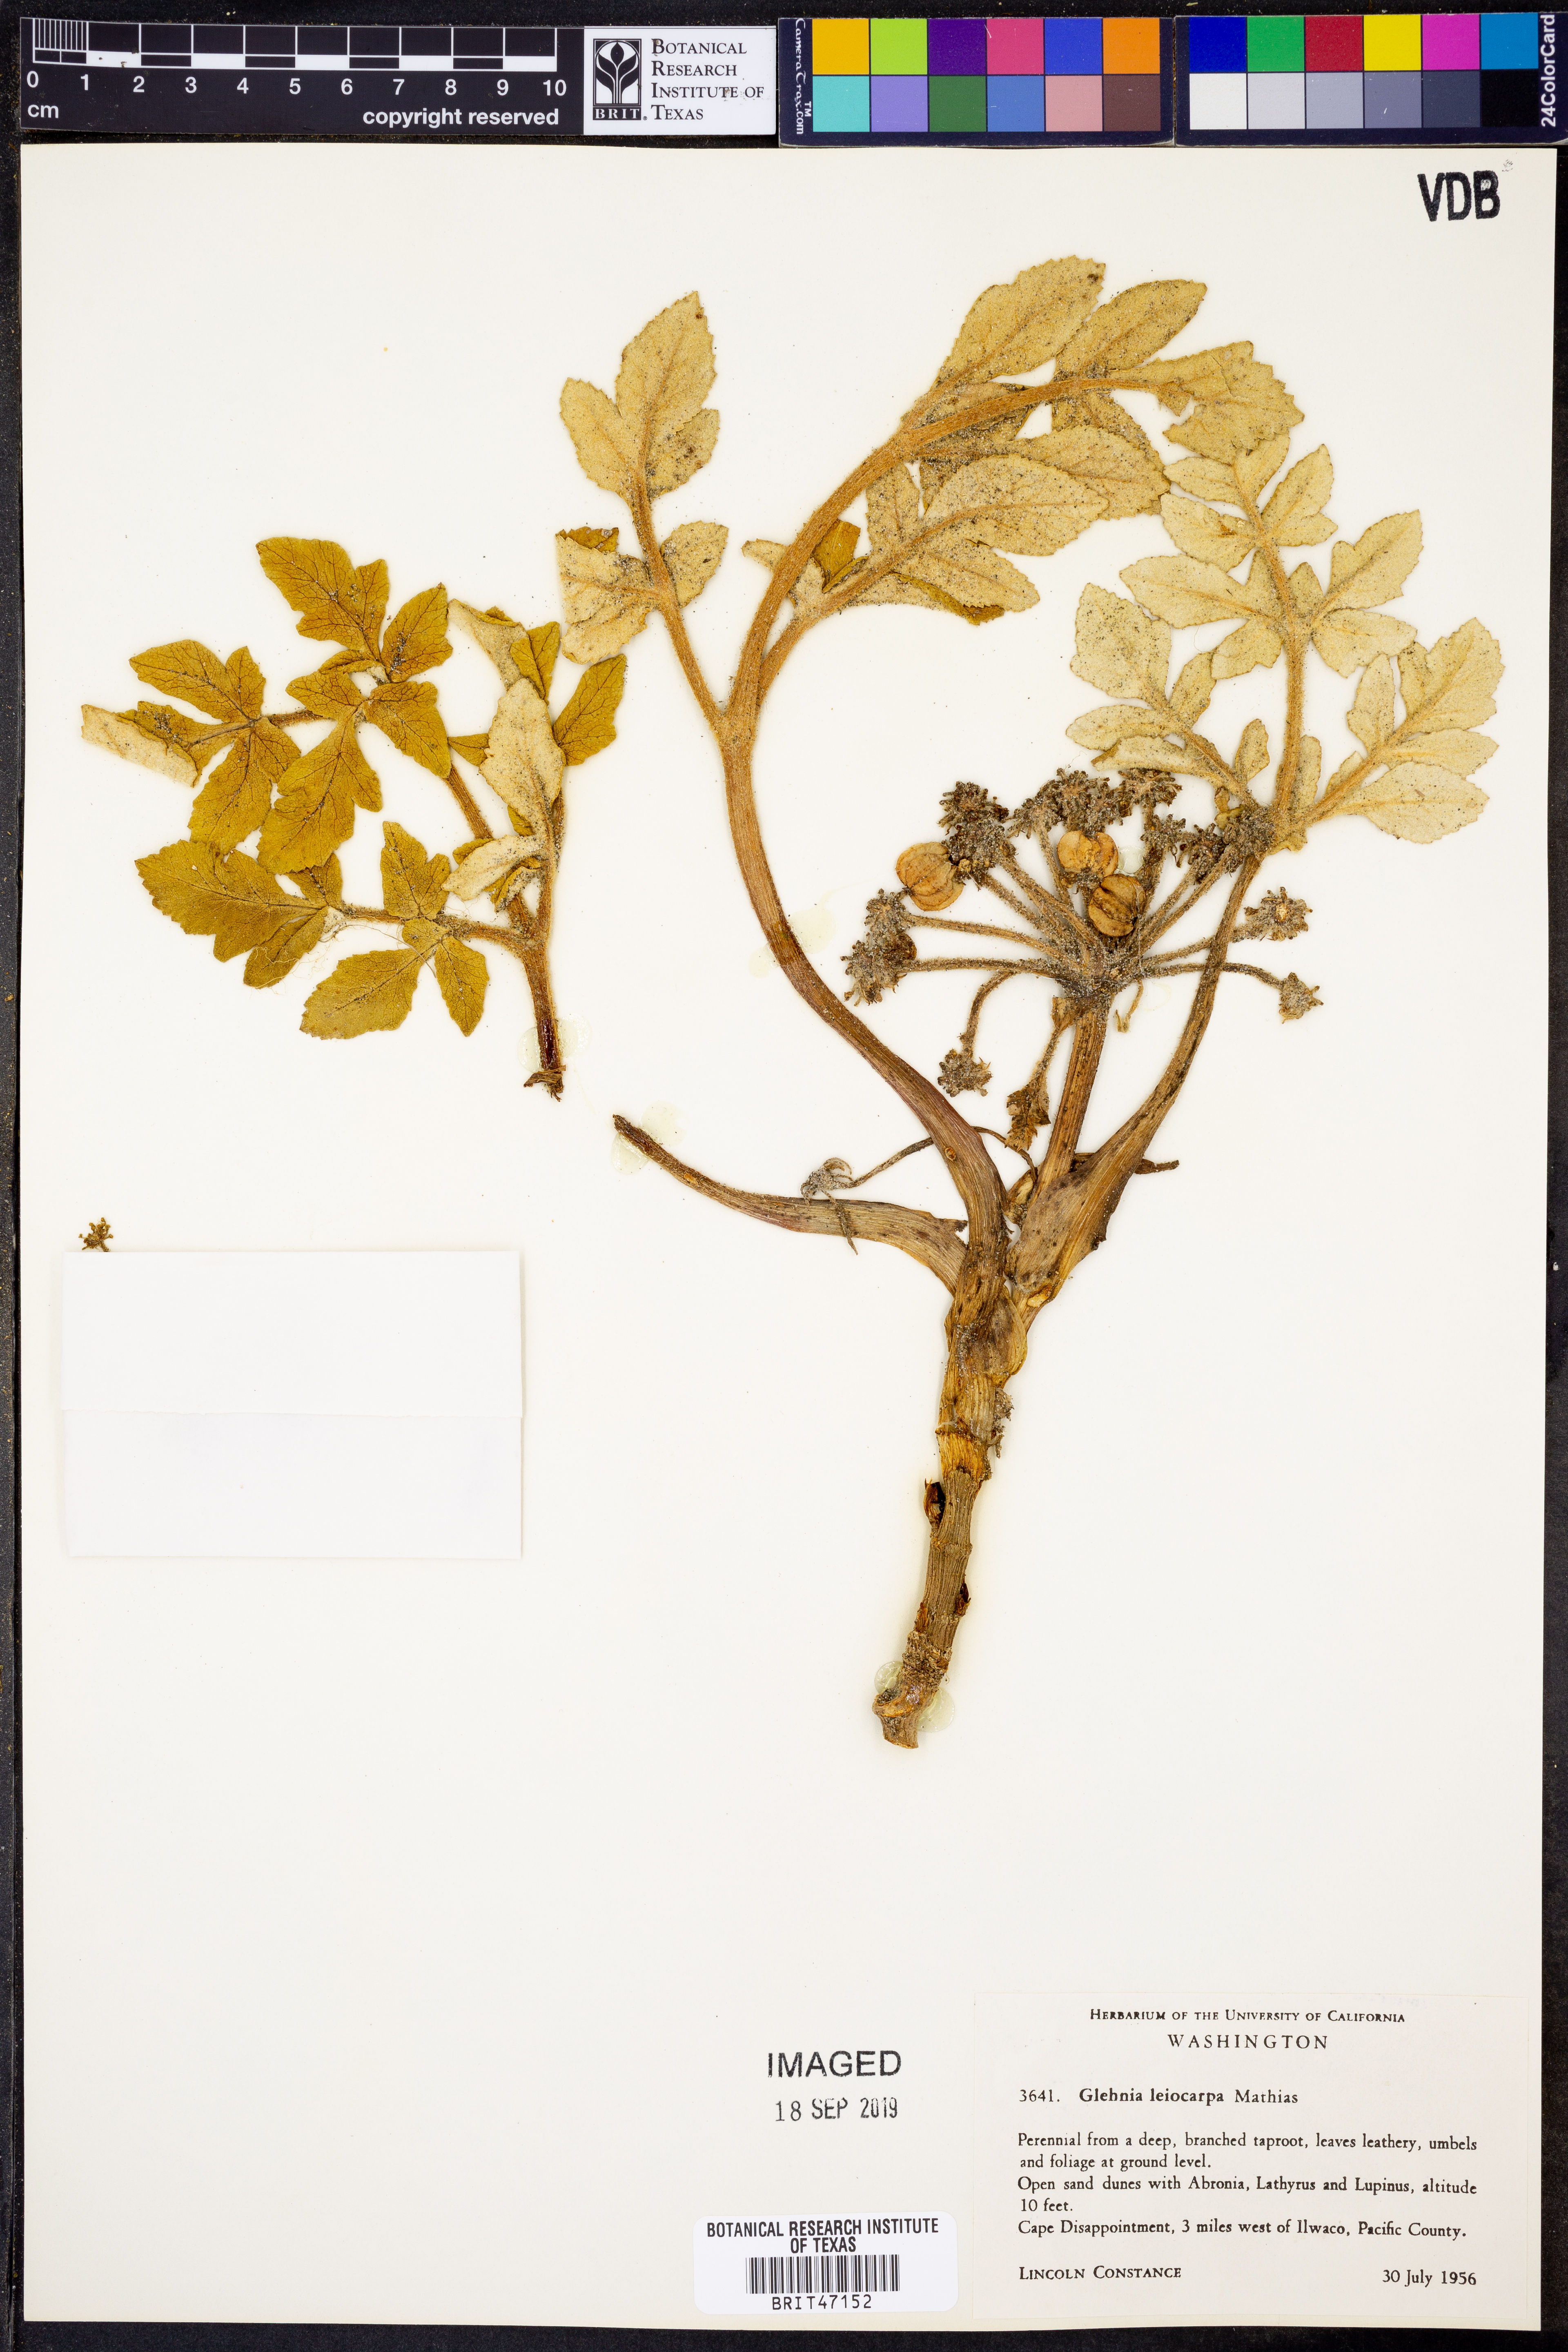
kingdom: Plantae
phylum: Tracheophyta
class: Magnoliopsida
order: Apiales
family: Apiaceae
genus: Angelica
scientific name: Angelica leiocarpa
